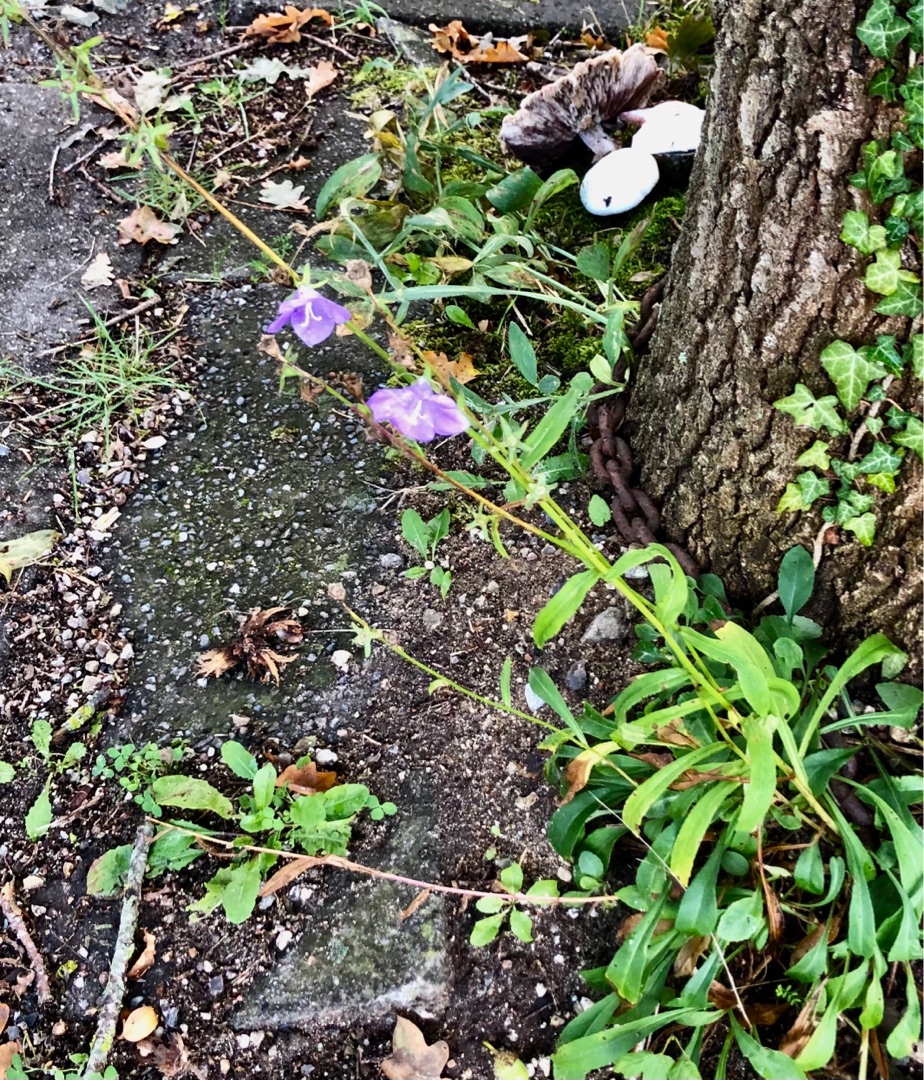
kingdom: Plantae
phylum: Tracheophyta
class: Magnoliopsida
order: Asterales
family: Campanulaceae
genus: Campanula
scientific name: Campanula persicifolia
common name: Smalbladet klokke
